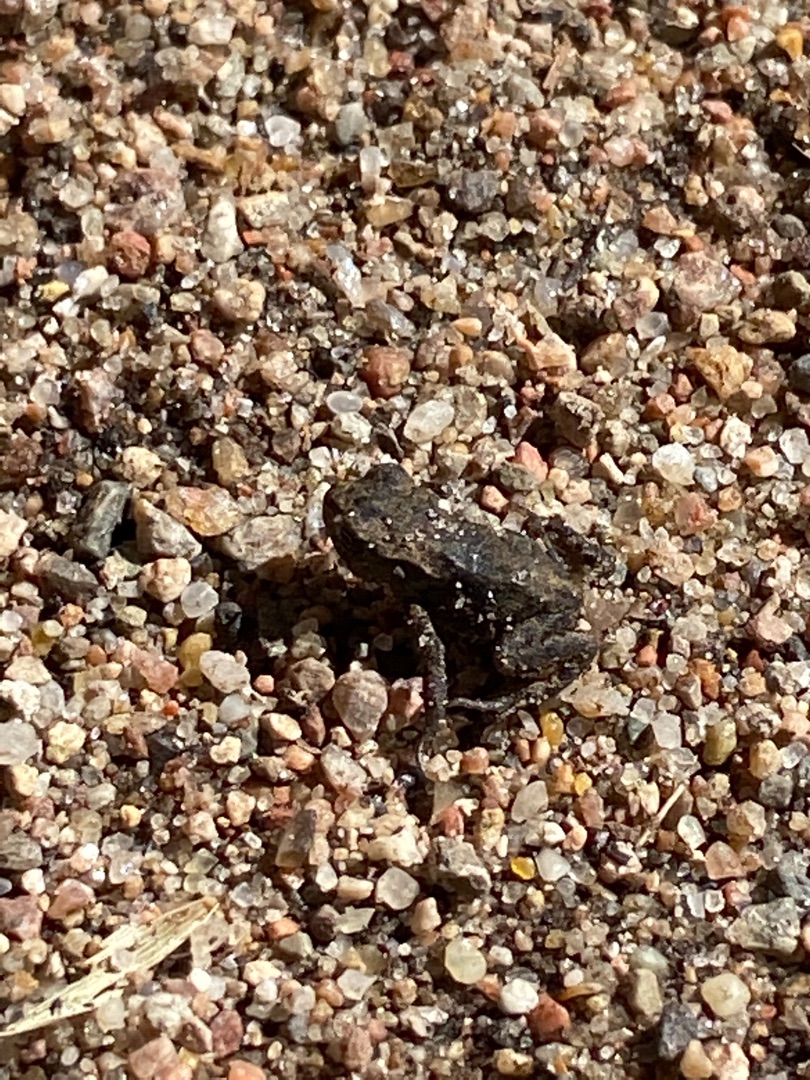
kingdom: Animalia
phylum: Chordata
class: Amphibia
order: Anura
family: Bufonidae
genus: Bufo
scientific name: Bufo bufo
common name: Skrubtudse
